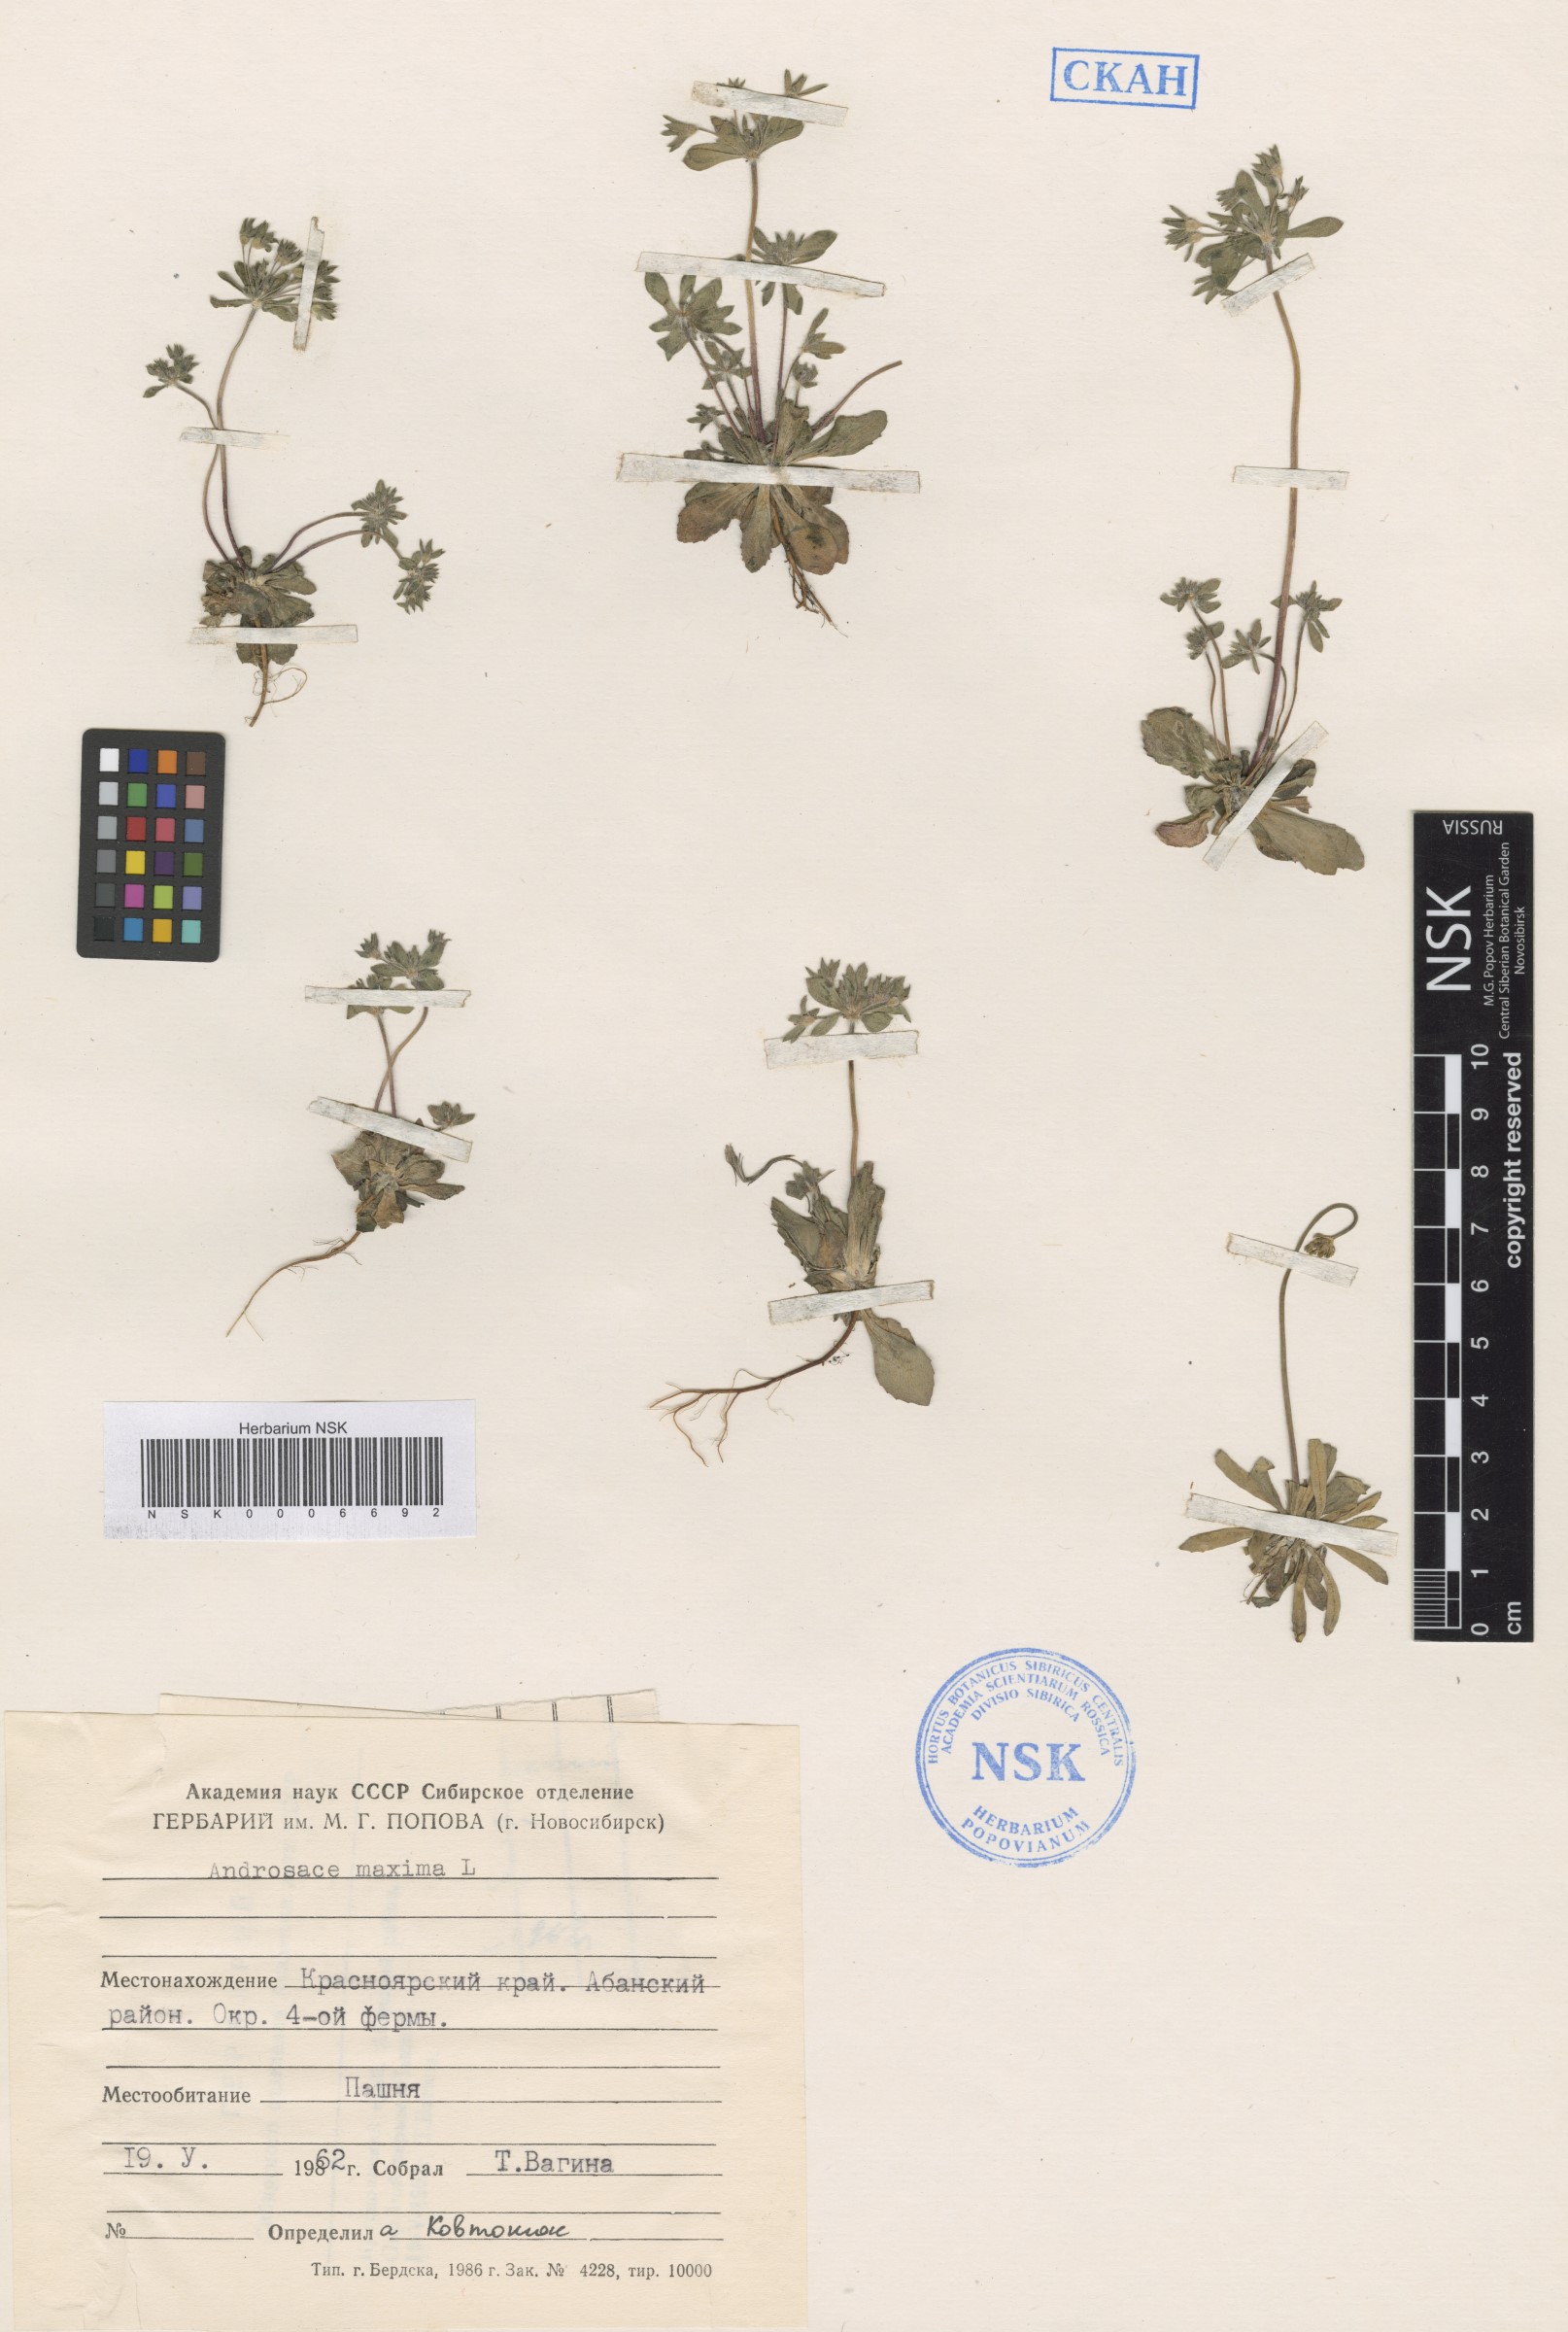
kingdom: Plantae
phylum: Tracheophyta
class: Magnoliopsida
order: Ericales
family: Primulaceae
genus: Androsace
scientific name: Androsace maxima
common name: Annual androsace
